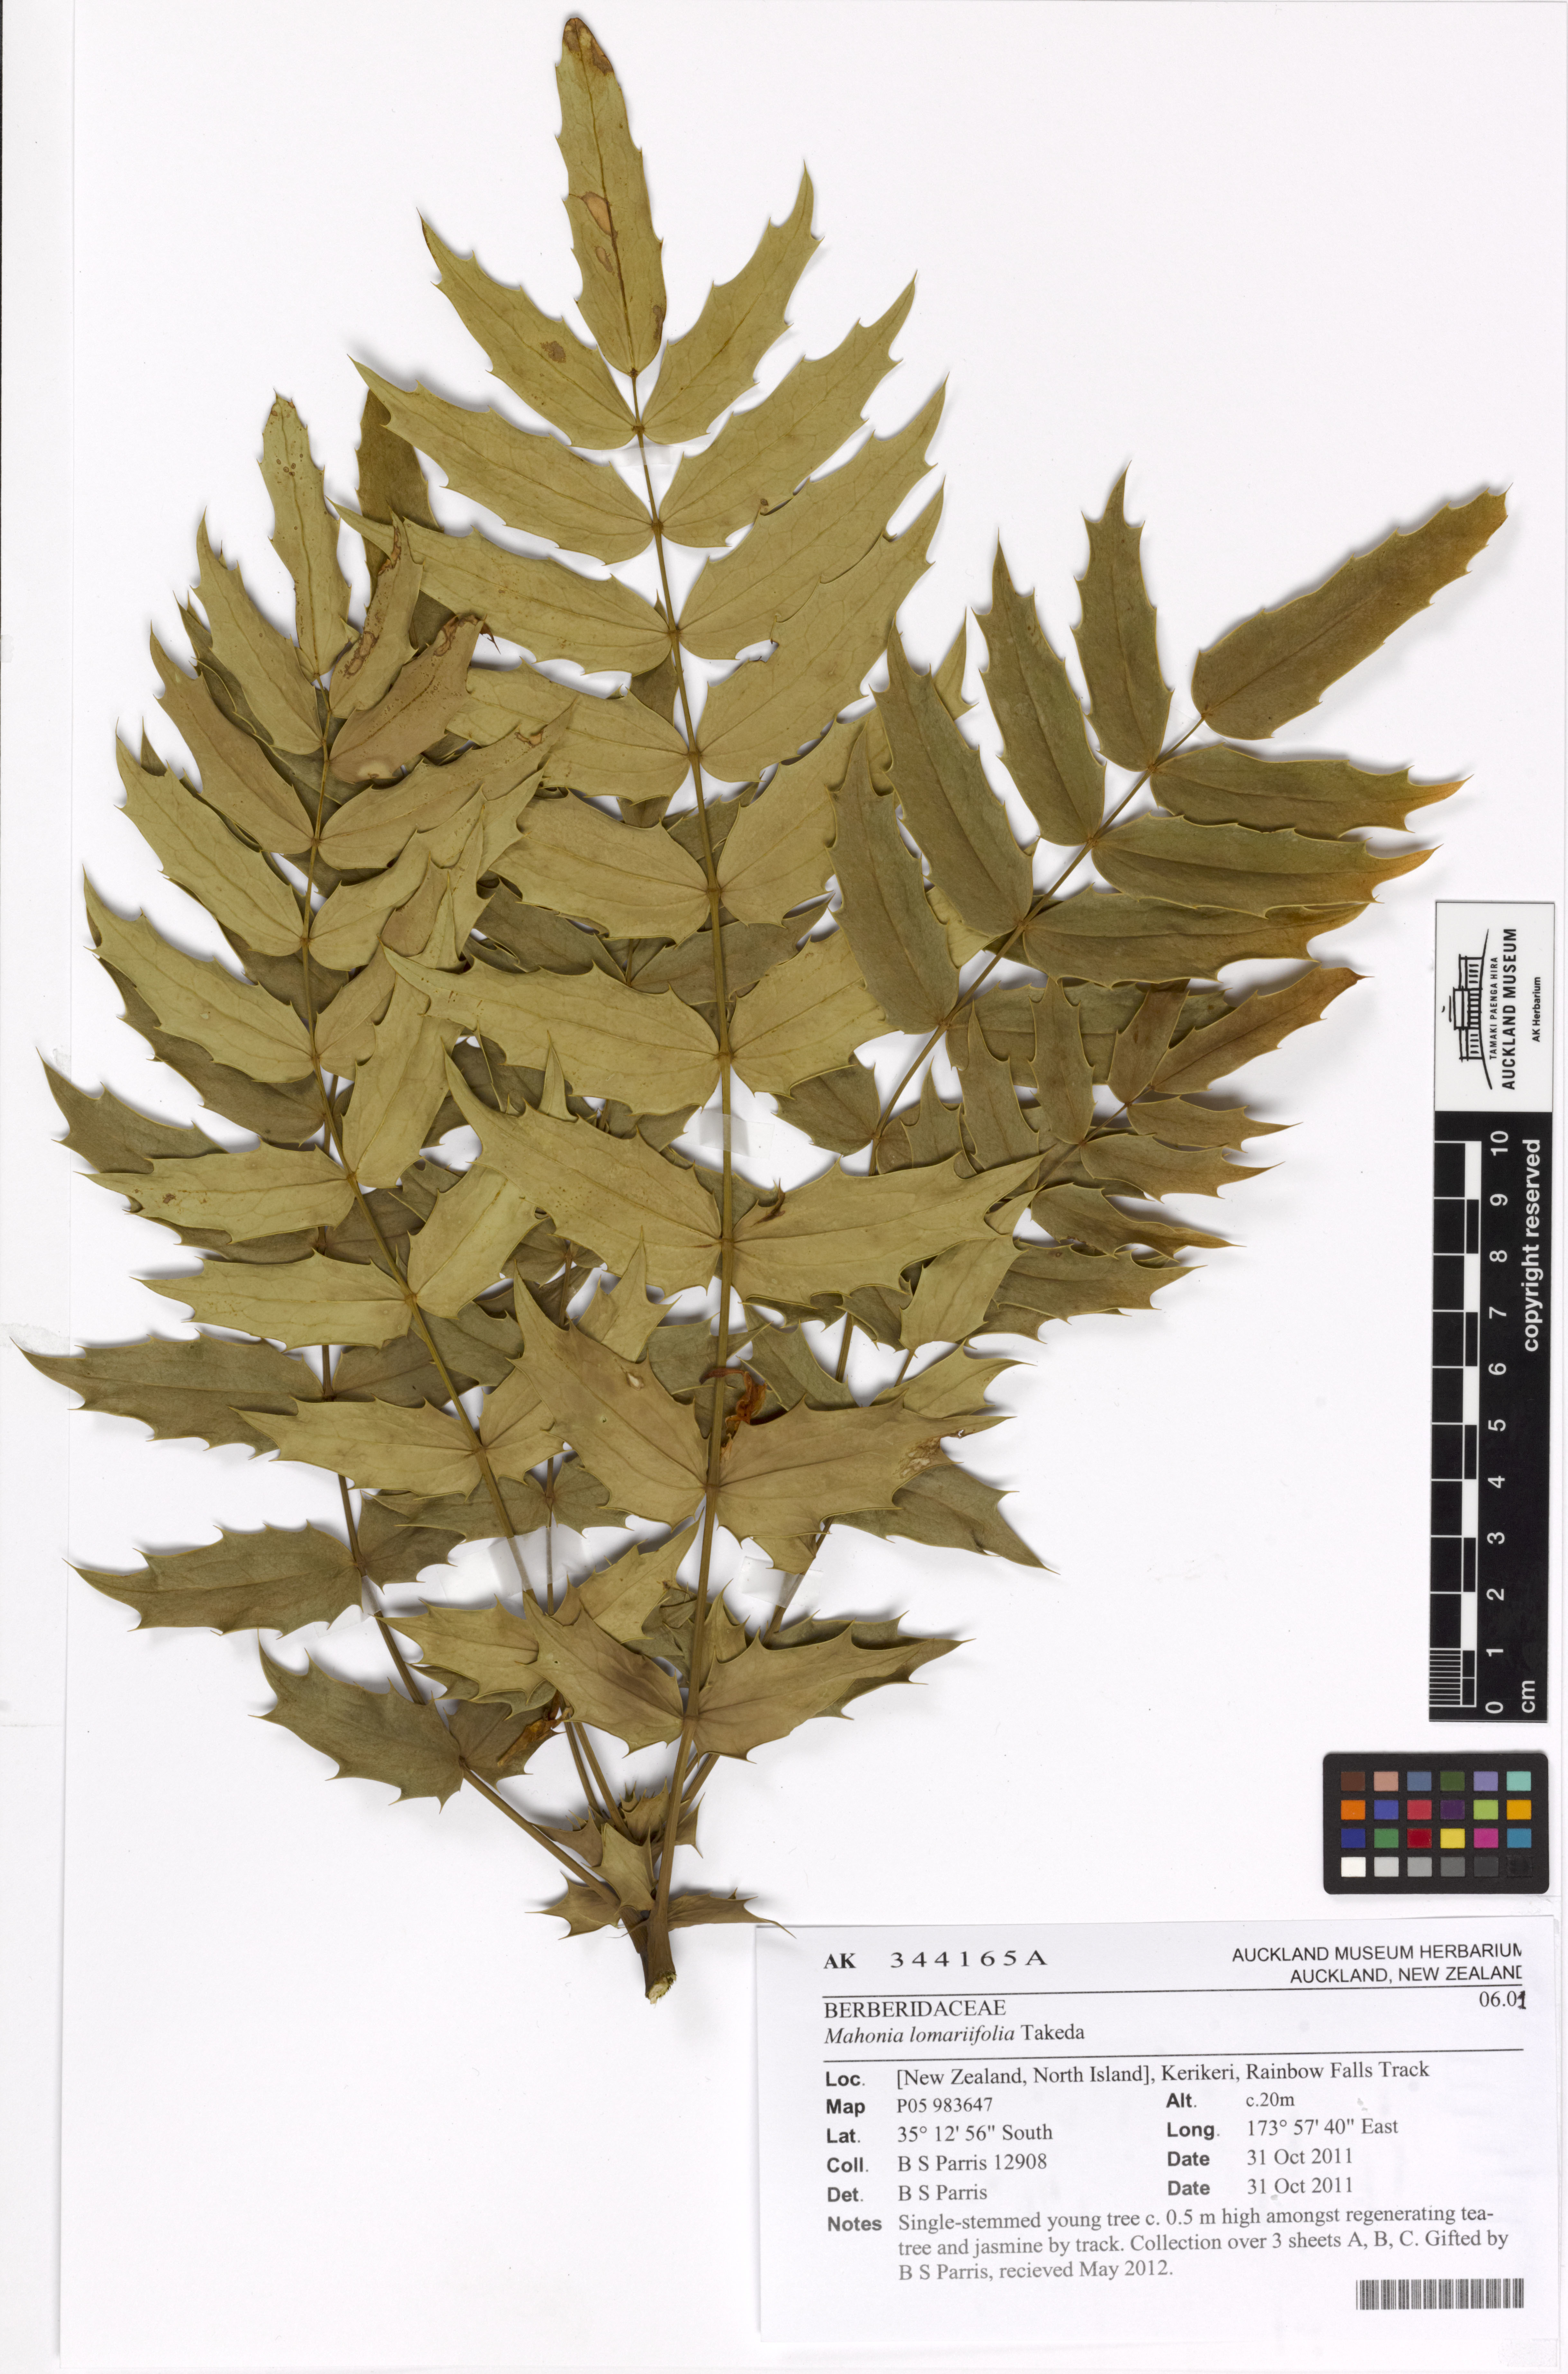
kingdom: Plantae
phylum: Tracheophyta
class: Magnoliopsida
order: Ranunculales
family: Berberidaceae
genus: Mahonia
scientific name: Mahonia oiwakensis
